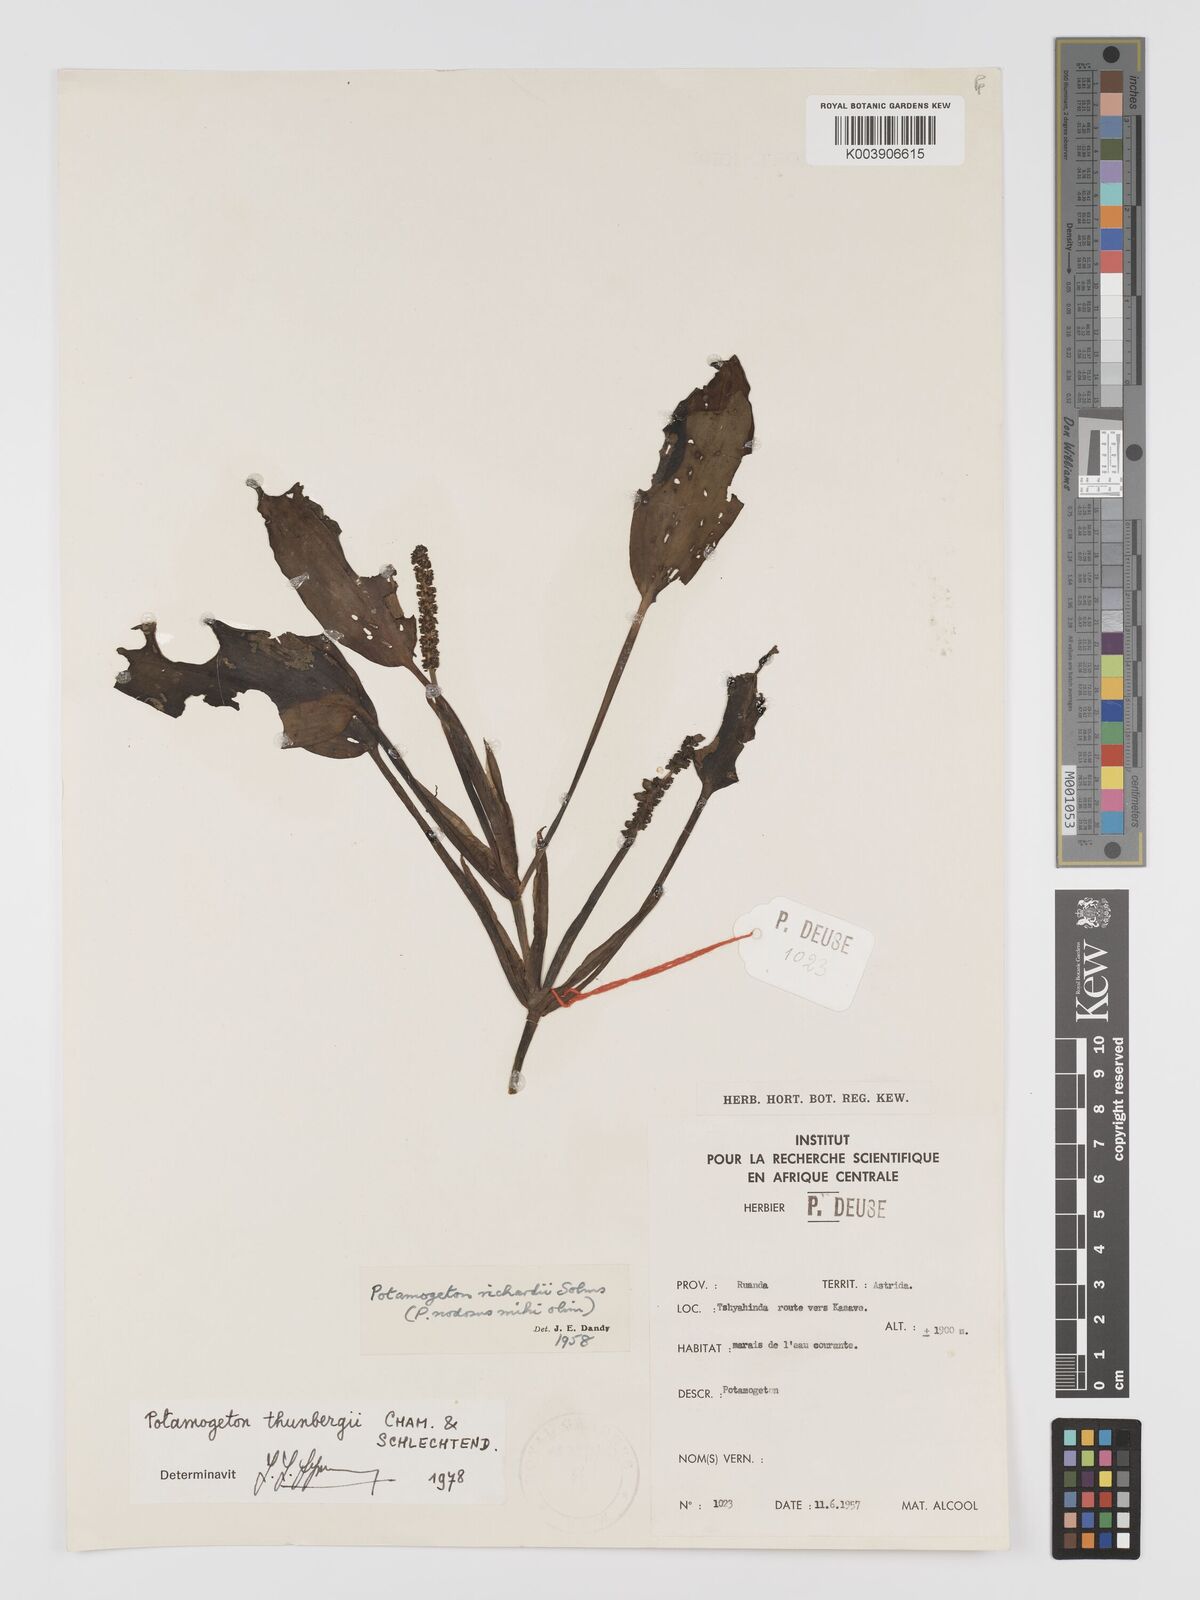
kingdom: Plantae
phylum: Tracheophyta
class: Liliopsida
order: Alismatales
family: Potamogetonaceae
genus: Potamogeton
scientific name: Potamogeton nodosus
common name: Loddon pondweed
